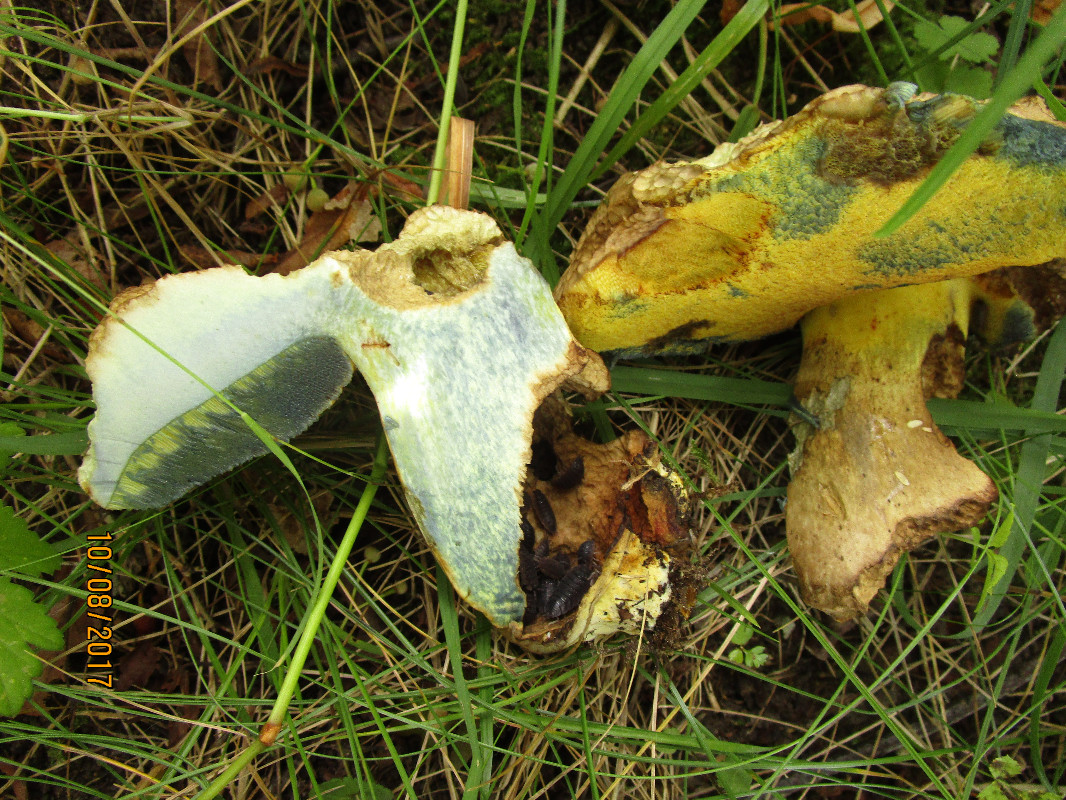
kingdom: Fungi
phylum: Basidiomycota
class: Agaricomycetes
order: Boletales
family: Boletaceae
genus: Caloboletus
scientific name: Caloboletus radicans
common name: rod-rørhat
